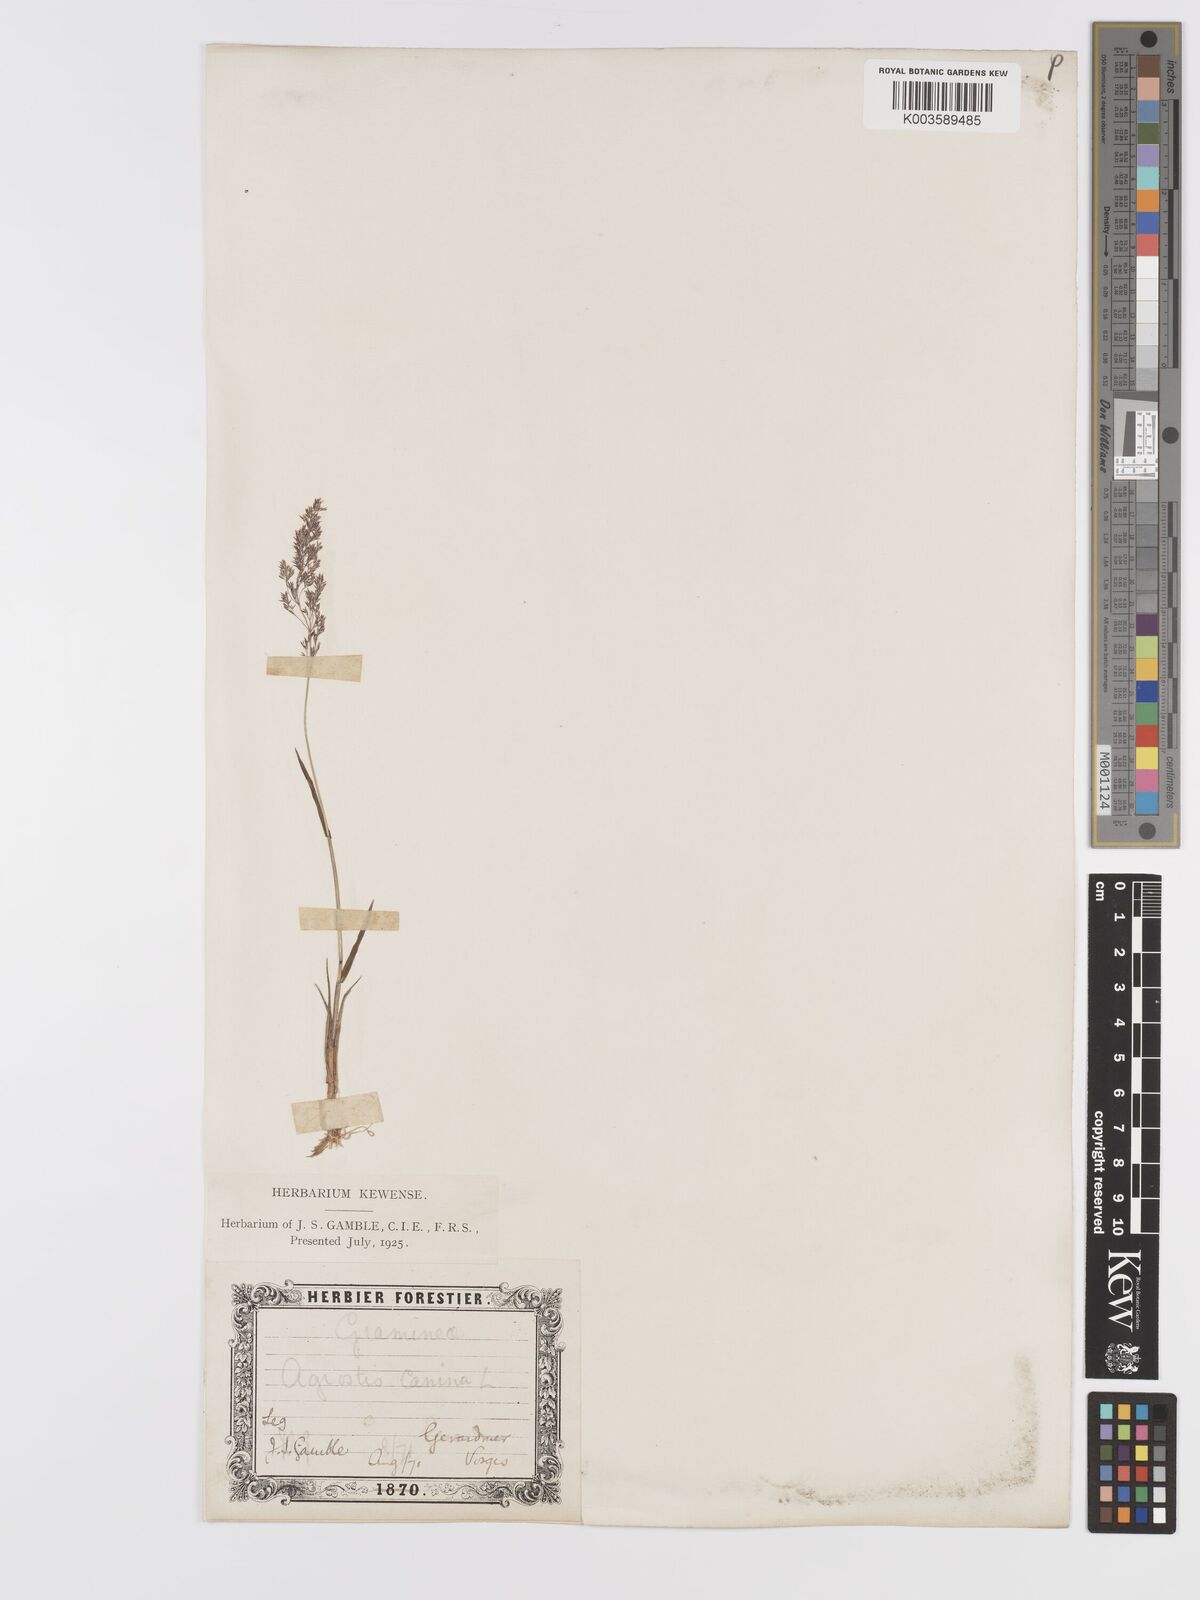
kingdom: Plantae
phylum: Tracheophyta
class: Liliopsida
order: Poales
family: Poaceae
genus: Agrostis
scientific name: Agrostis canina
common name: Velvet bent
